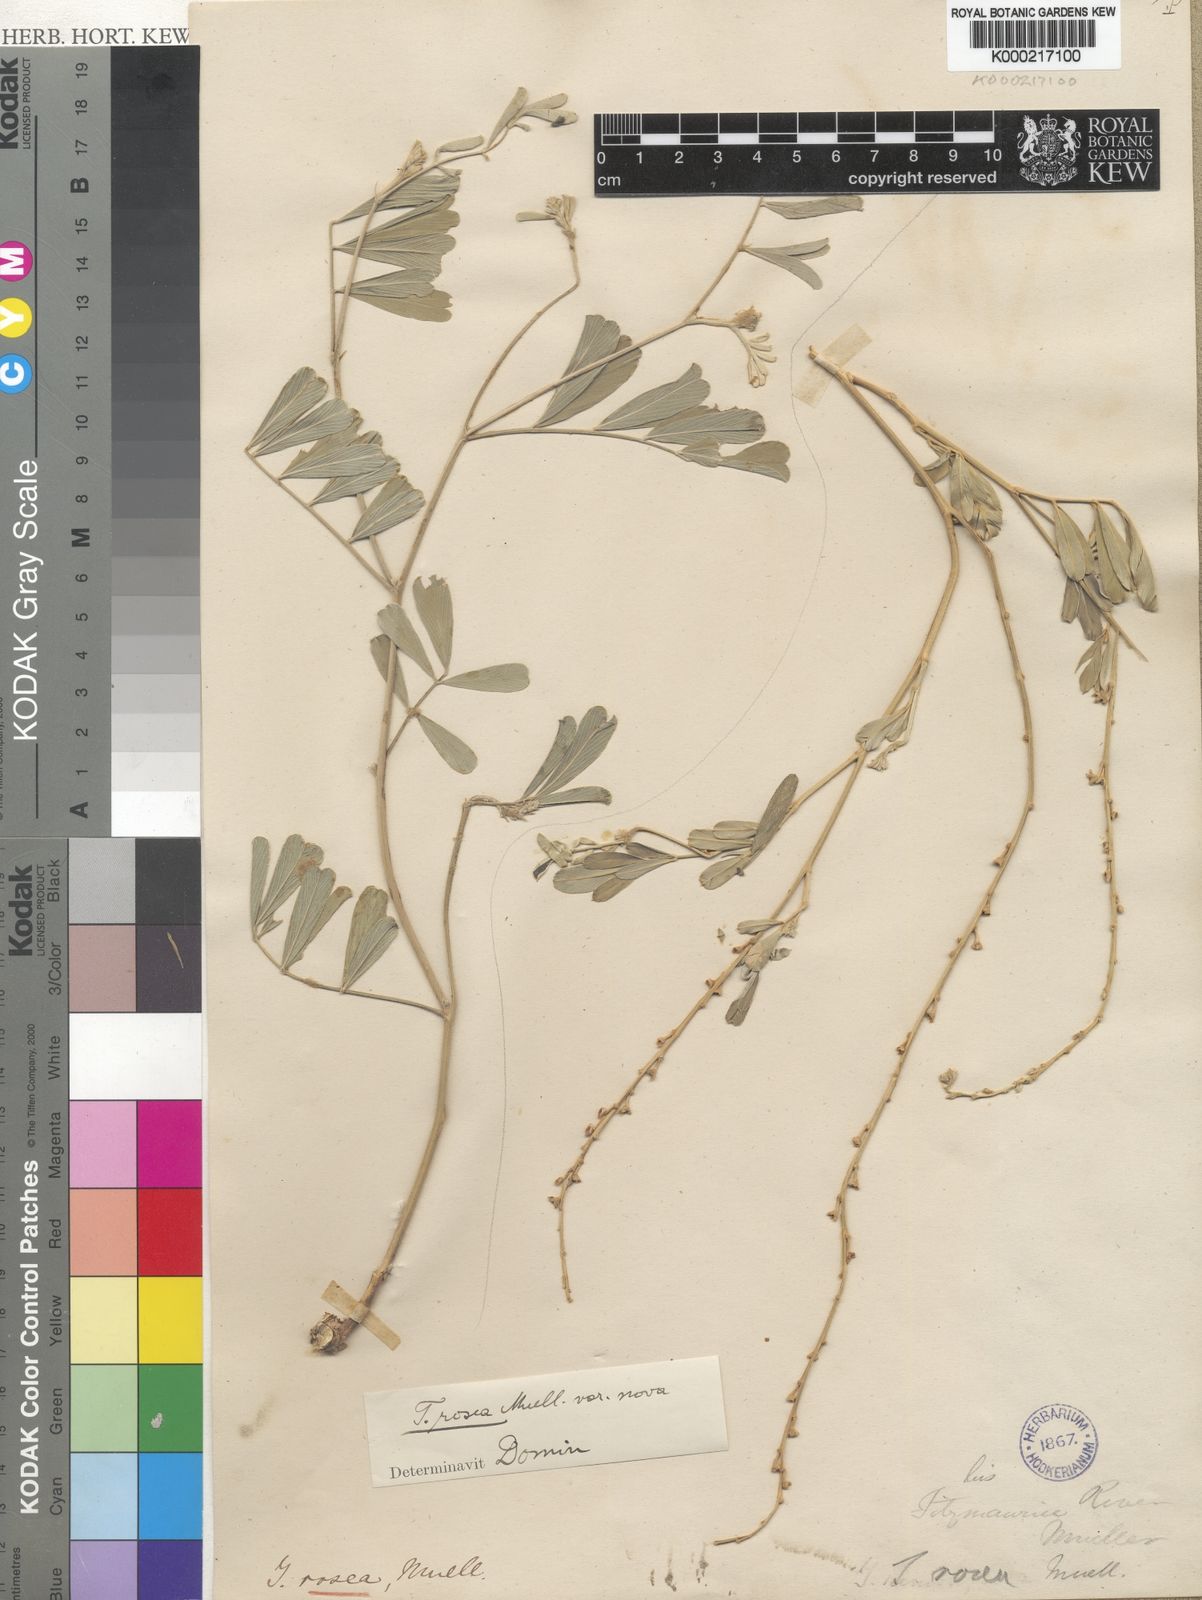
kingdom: Plantae
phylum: Tracheophyta
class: Magnoliopsida
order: Fabales
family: Fabaceae
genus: Tephrosia
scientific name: Tephrosia rosea
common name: Flinders river-poison
